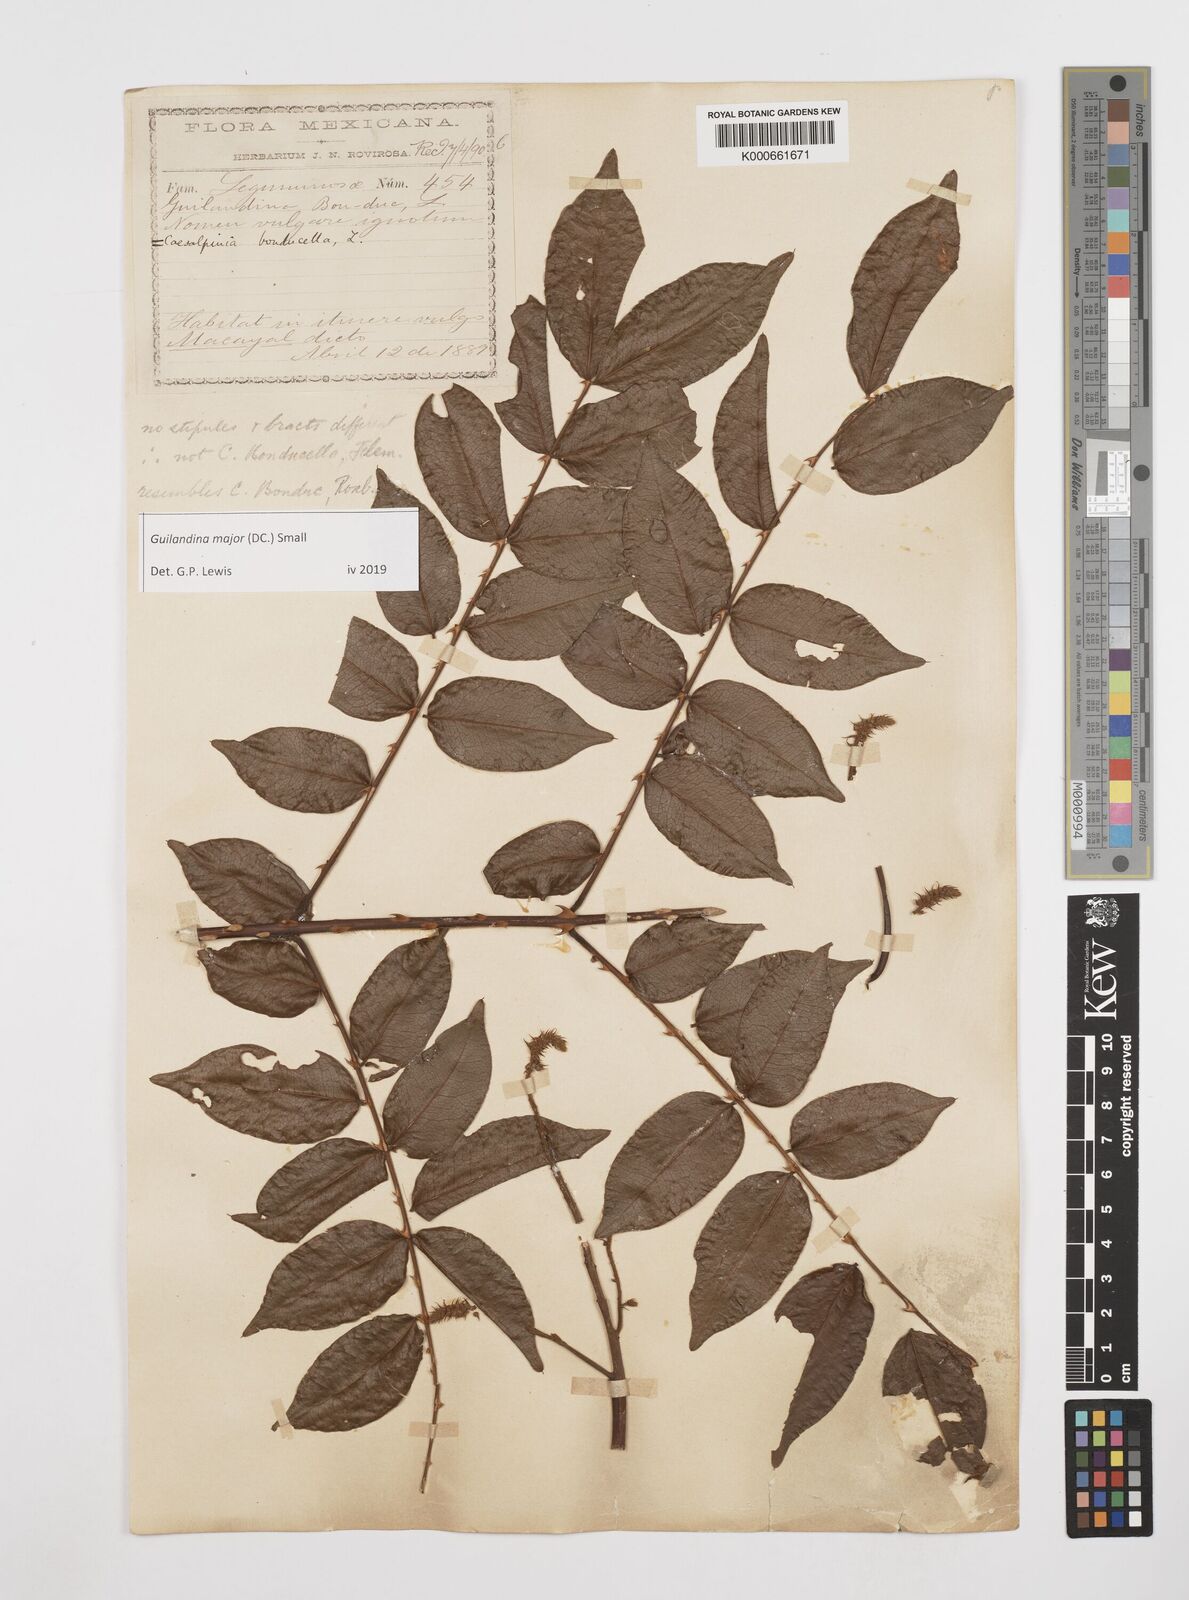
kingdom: Plantae
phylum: Tracheophyta
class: Magnoliopsida
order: Fabales
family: Fabaceae
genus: Guilandina
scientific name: Guilandina major
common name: Hawai'i pearls
